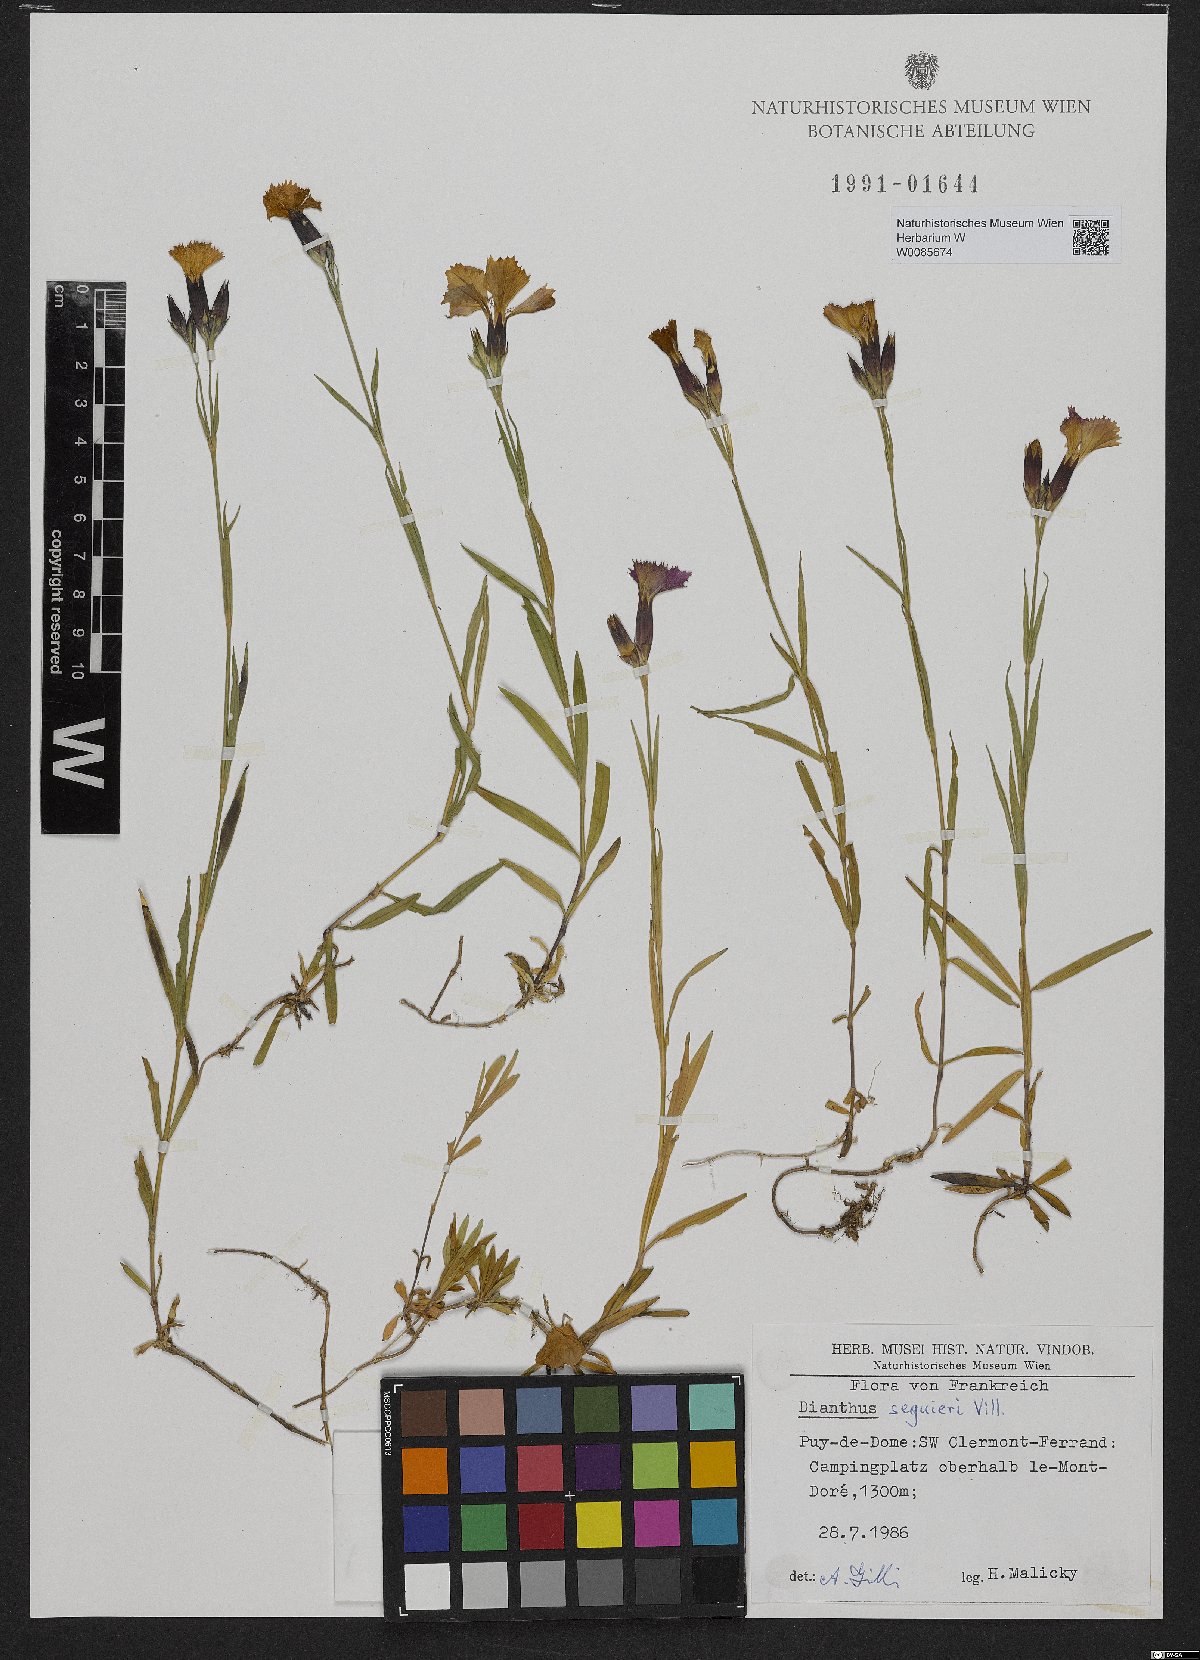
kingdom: Plantae
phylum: Tracheophyta
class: Magnoliopsida
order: Caryophyllales
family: Caryophyllaceae
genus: Dianthus
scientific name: Dianthus seguieri
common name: Ragged pink
